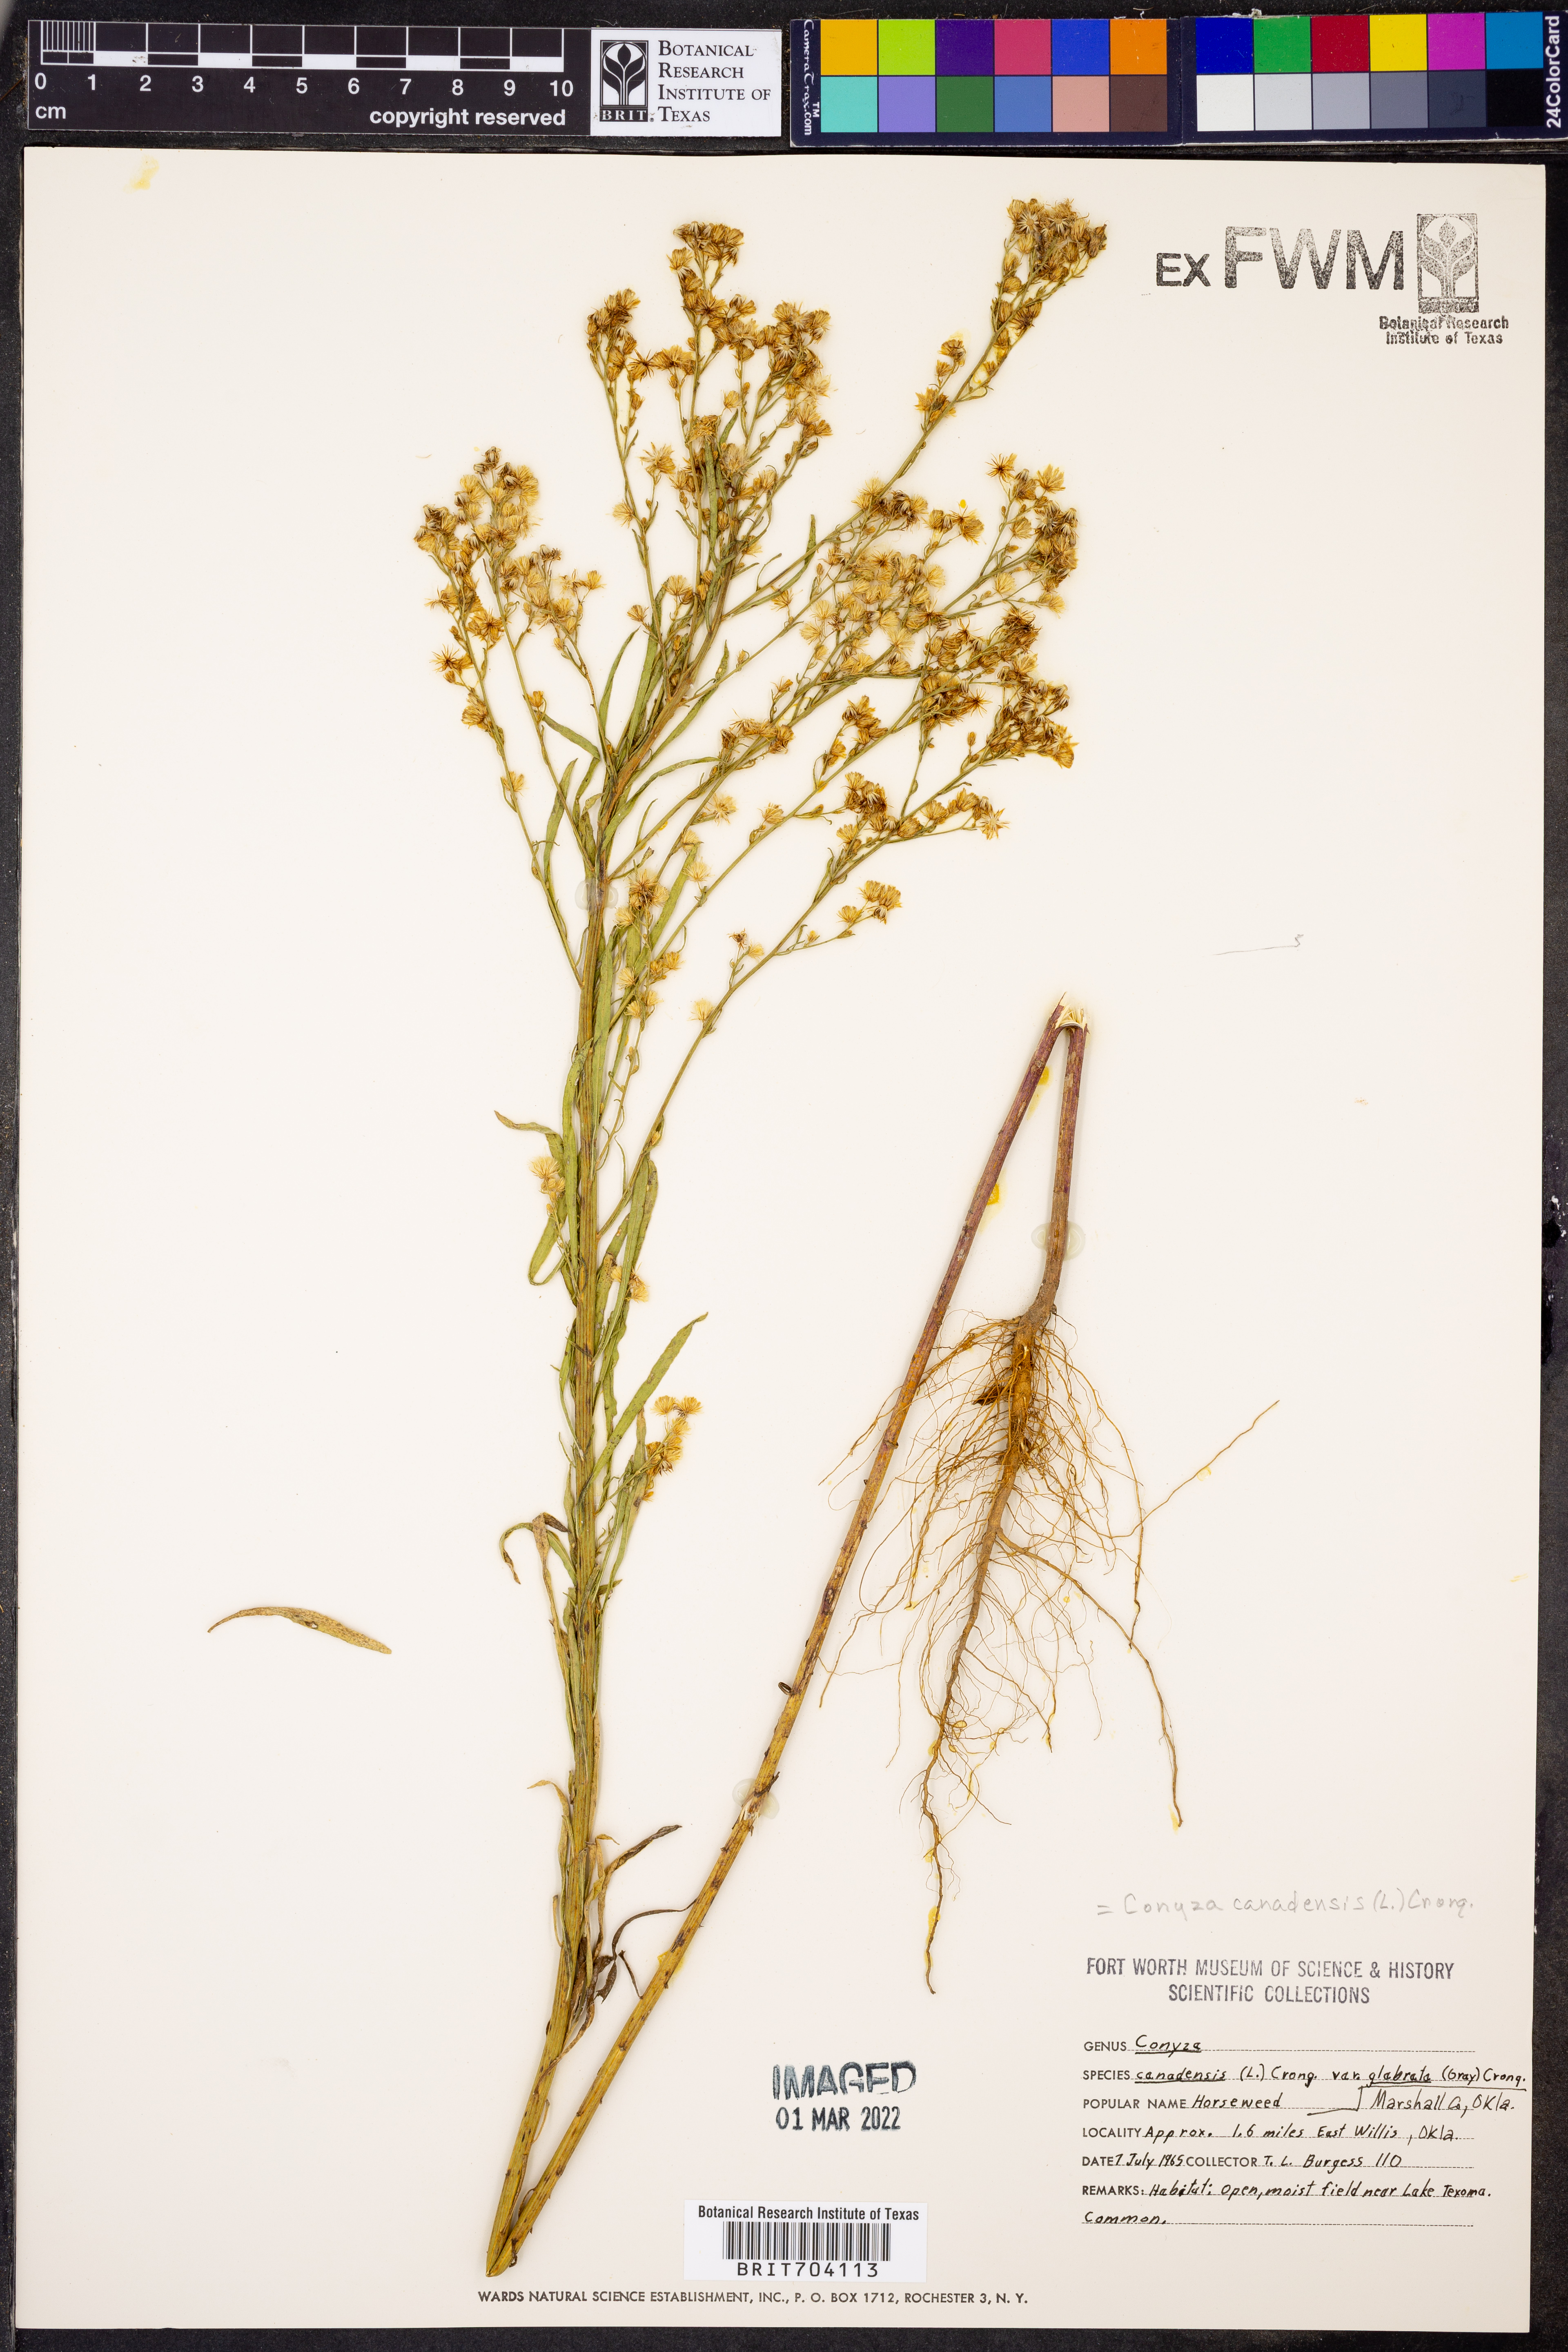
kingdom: Plantae
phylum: Tracheophyta
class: Magnoliopsida
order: Asterales
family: Asteraceae
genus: Erigeron
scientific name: Erigeron canadensis
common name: Canadian fleabane
